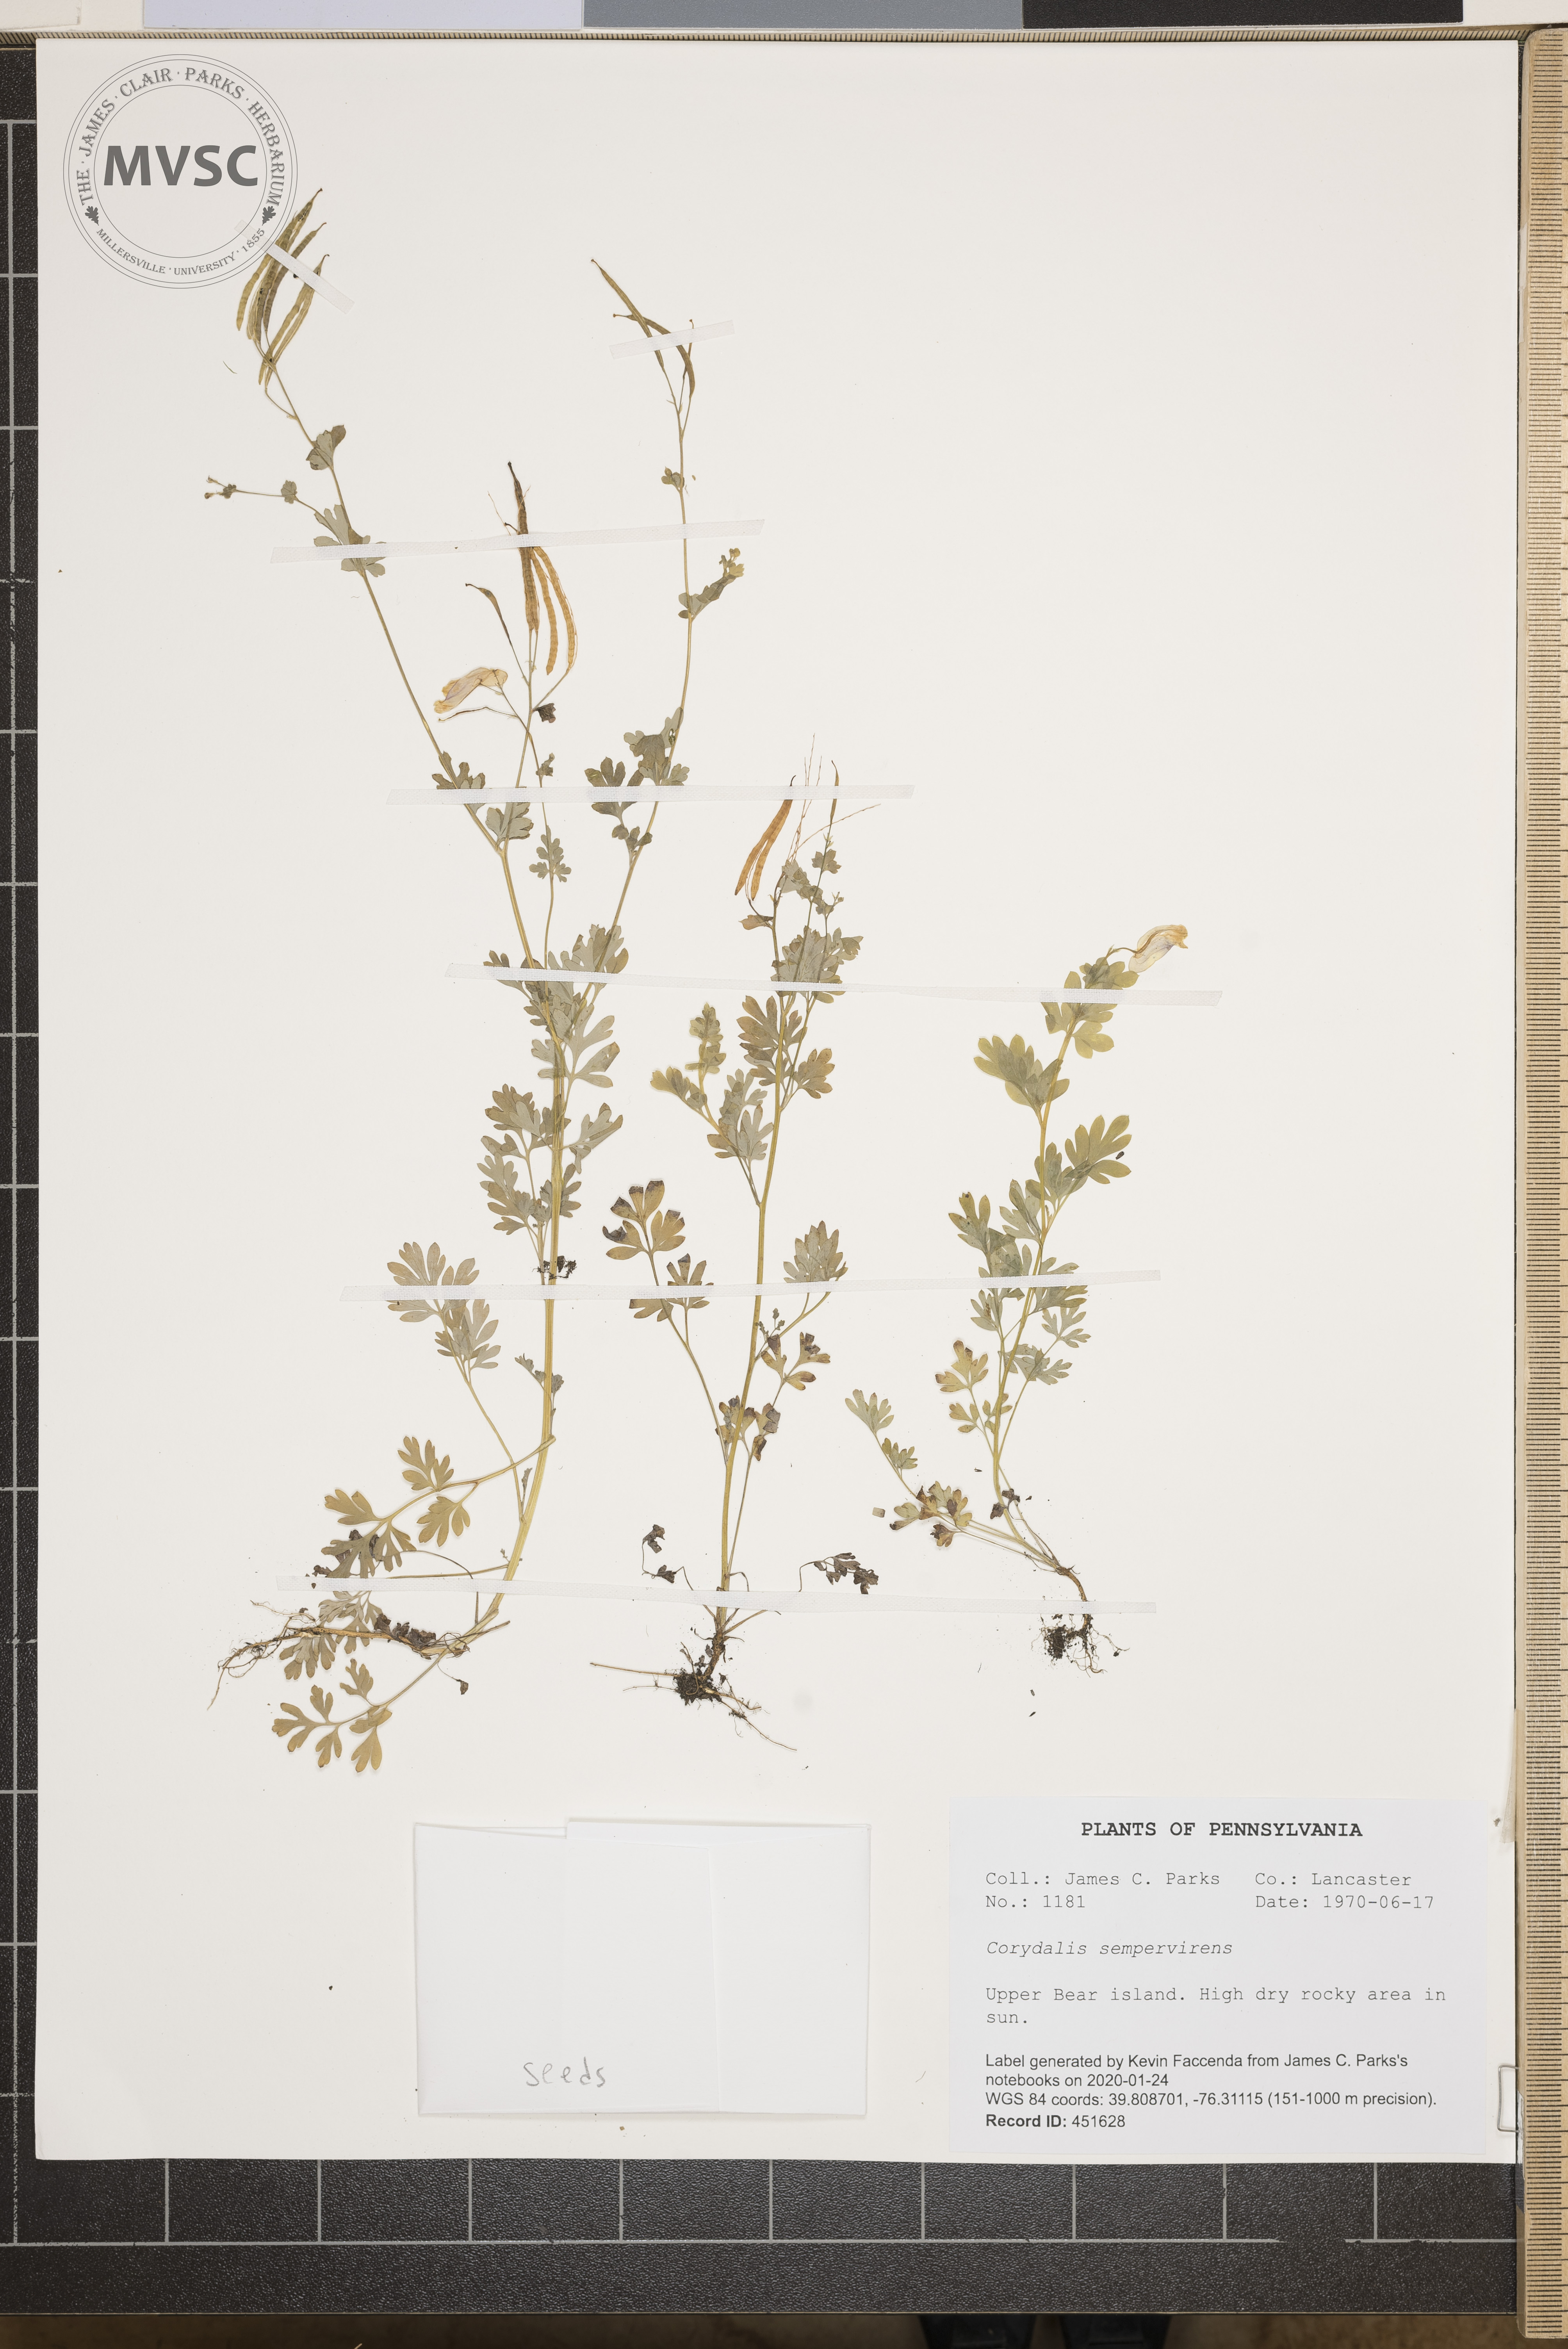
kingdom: Plantae
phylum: Tracheophyta
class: Magnoliopsida
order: Ranunculales
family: Papaveraceae
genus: Capnoides
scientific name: Capnoides sempervirens
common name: Rock harlequin
